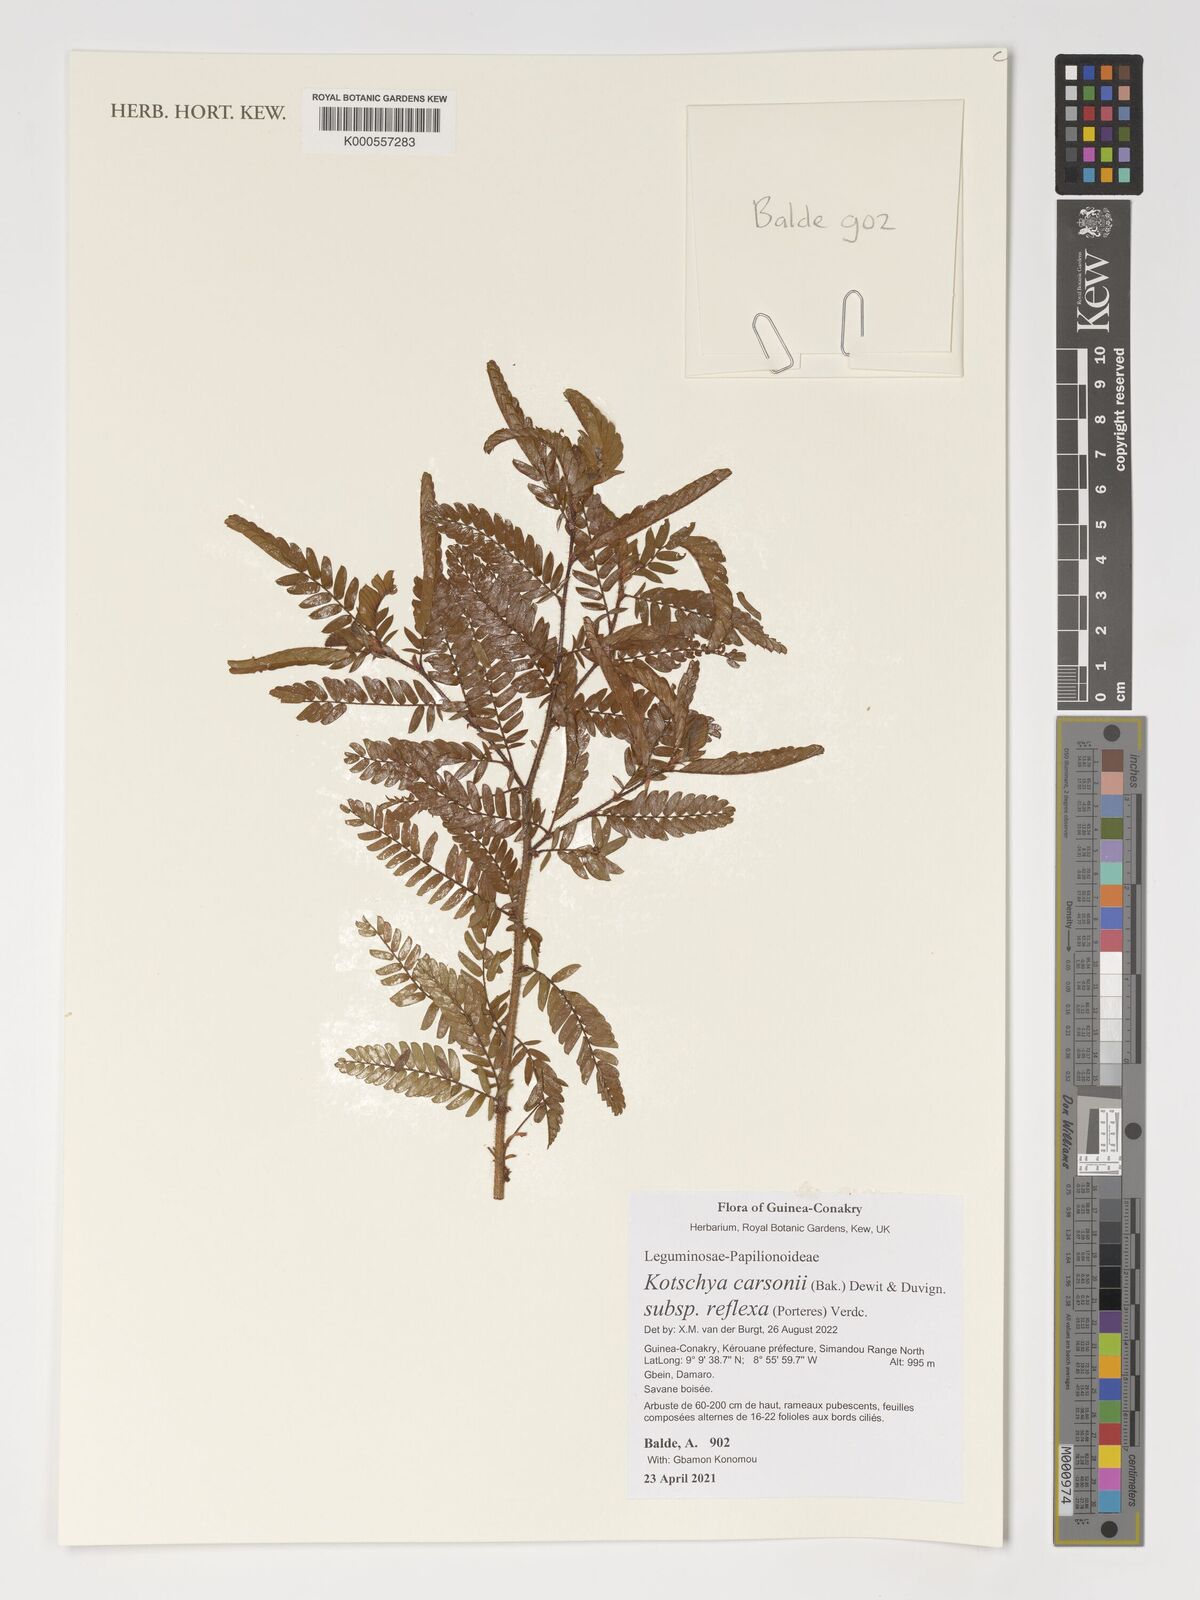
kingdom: Plantae
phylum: Tracheophyta
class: Magnoliopsida
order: Fabales
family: Fabaceae
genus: Kotschya
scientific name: Kotschya carsonii
